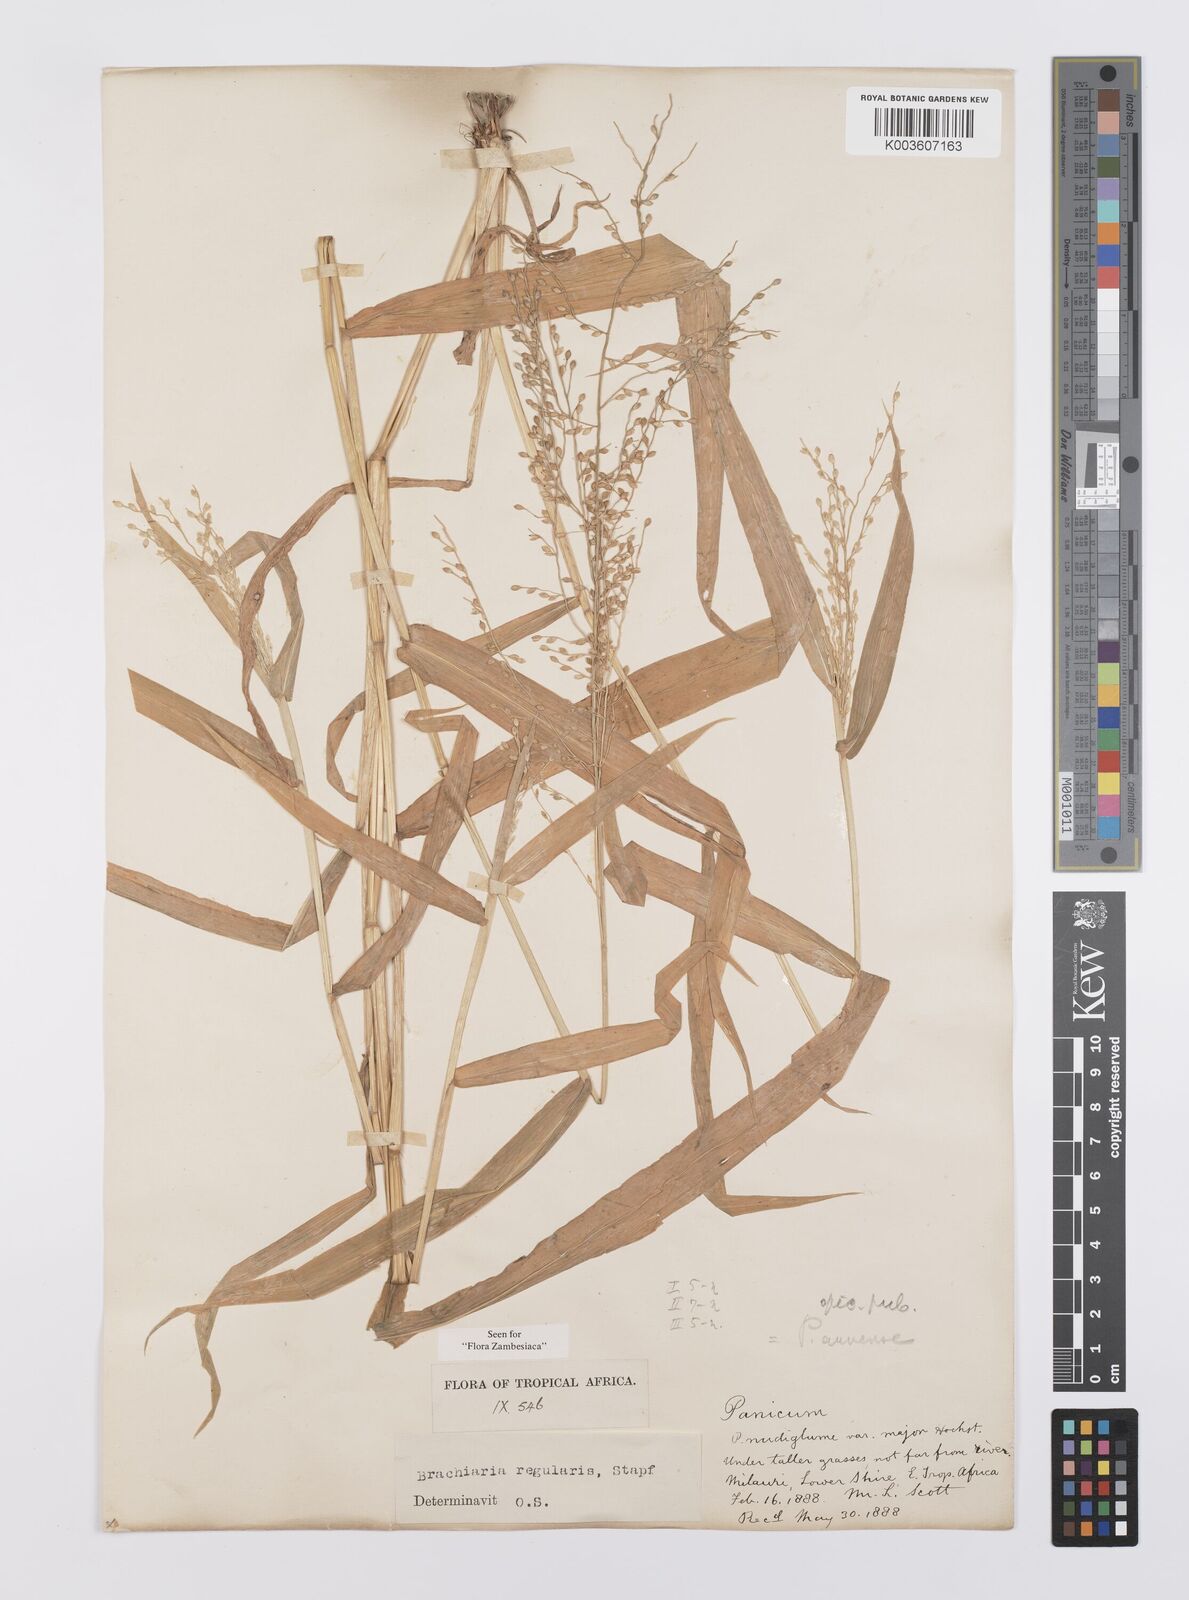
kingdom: Plantae
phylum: Tracheophyta
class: Liliopsida
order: Poales
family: Poaceae
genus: Urochloa
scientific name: Urochloa deflexa
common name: Guinea millet
